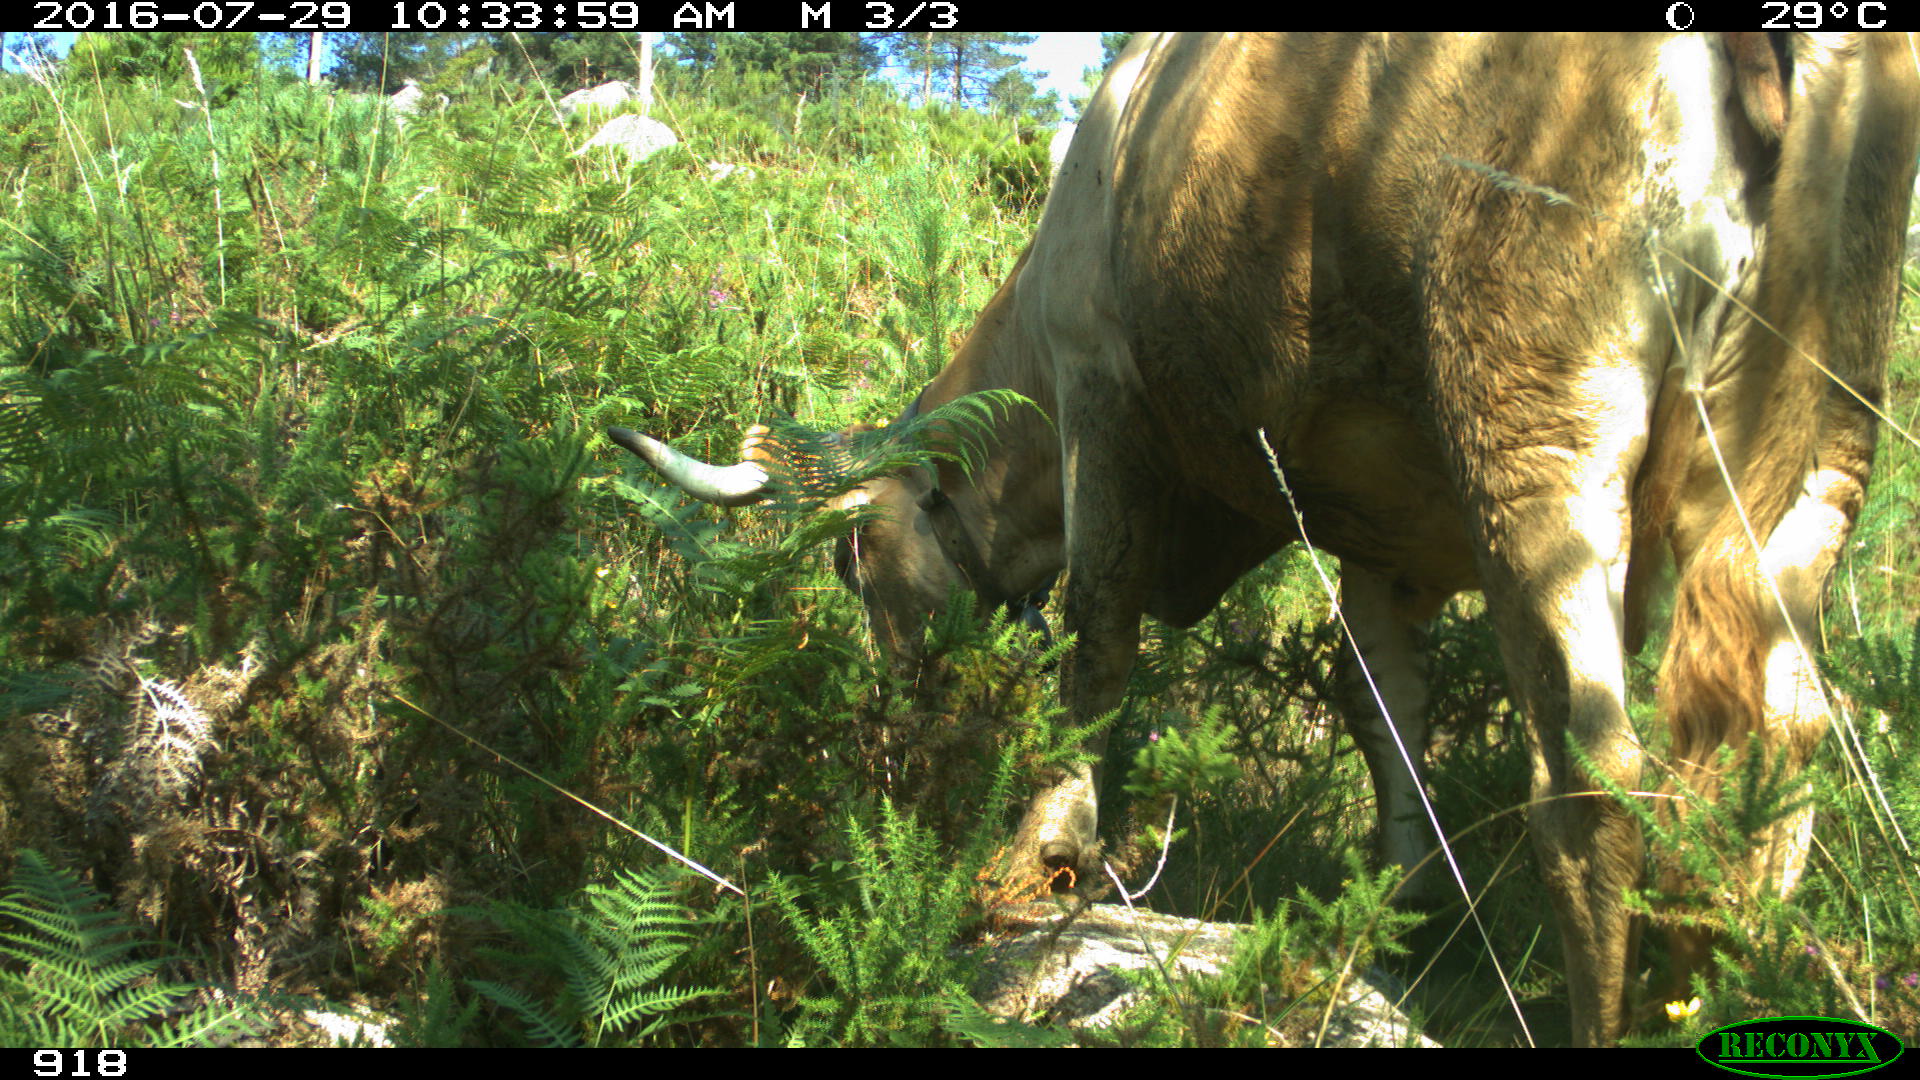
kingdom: Animalia
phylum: Chordata
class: Mammalia
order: Artiodactyla
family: Bovidae
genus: Bos
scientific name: Bos taurus
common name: Domesticated cattle
